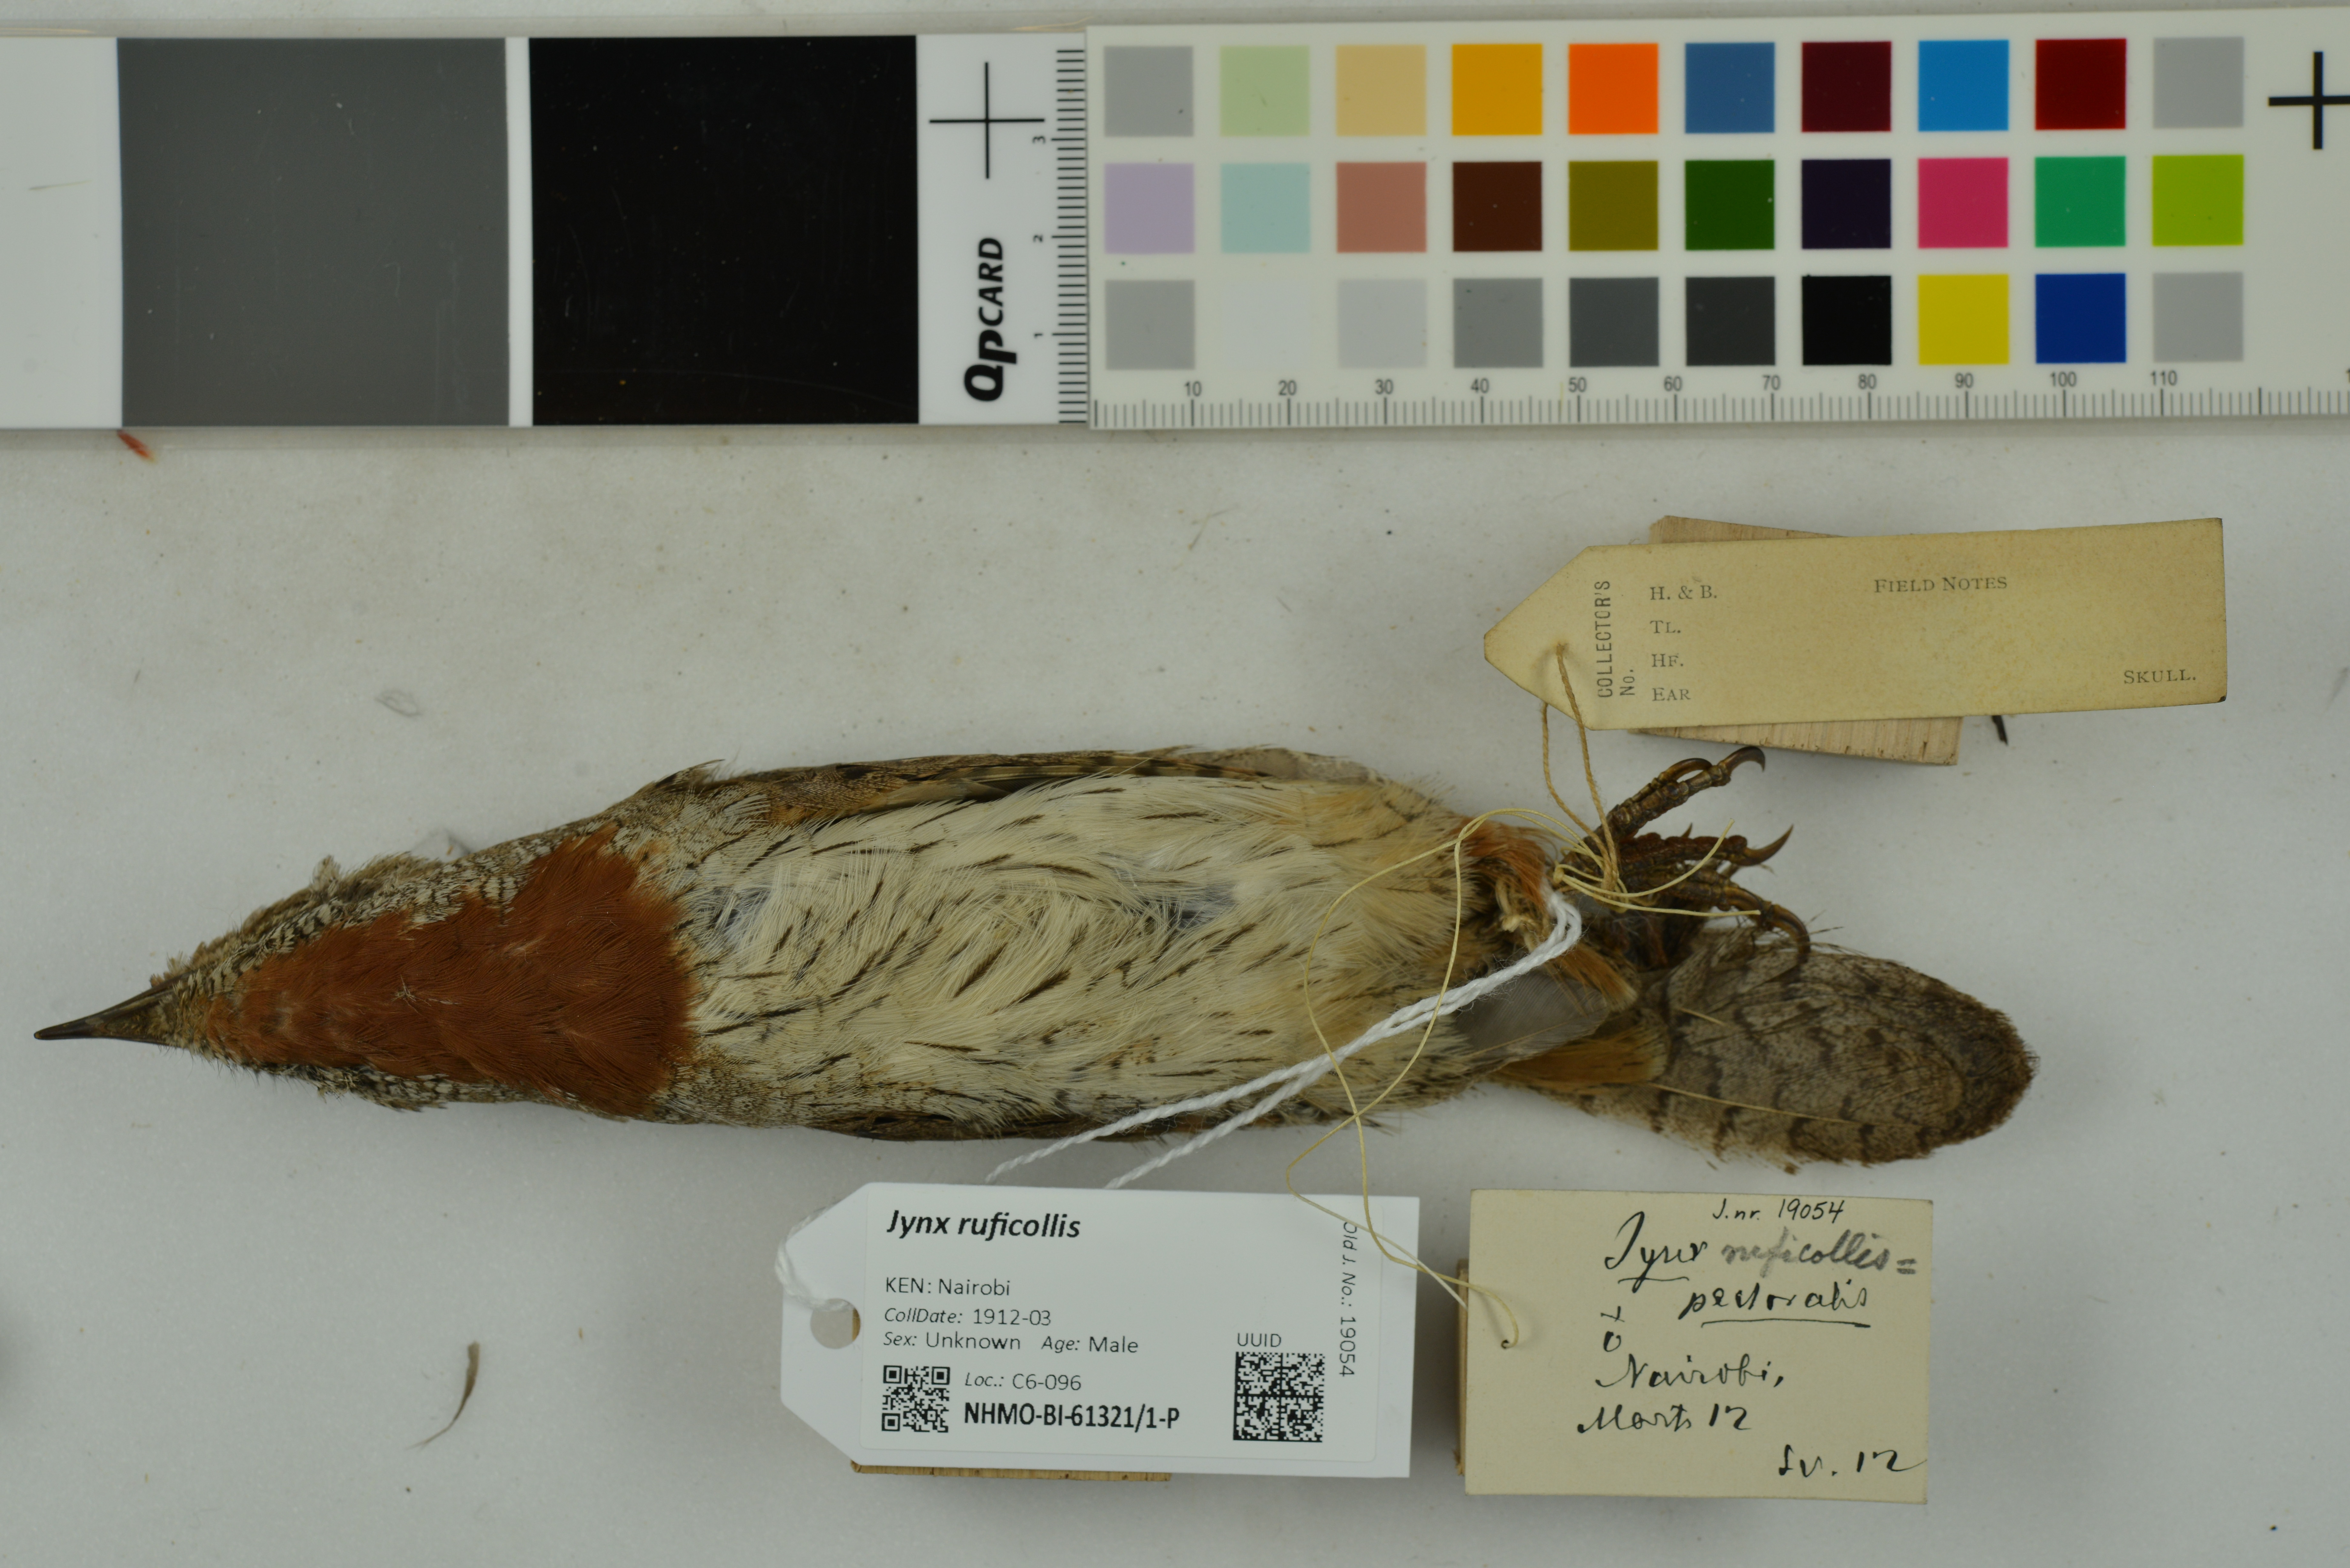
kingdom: Animalia
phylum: Chordata
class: Aves
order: Piciformes
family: Picidae
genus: Jynx
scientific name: Jynx ruficollis
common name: Red-throated wryneck
